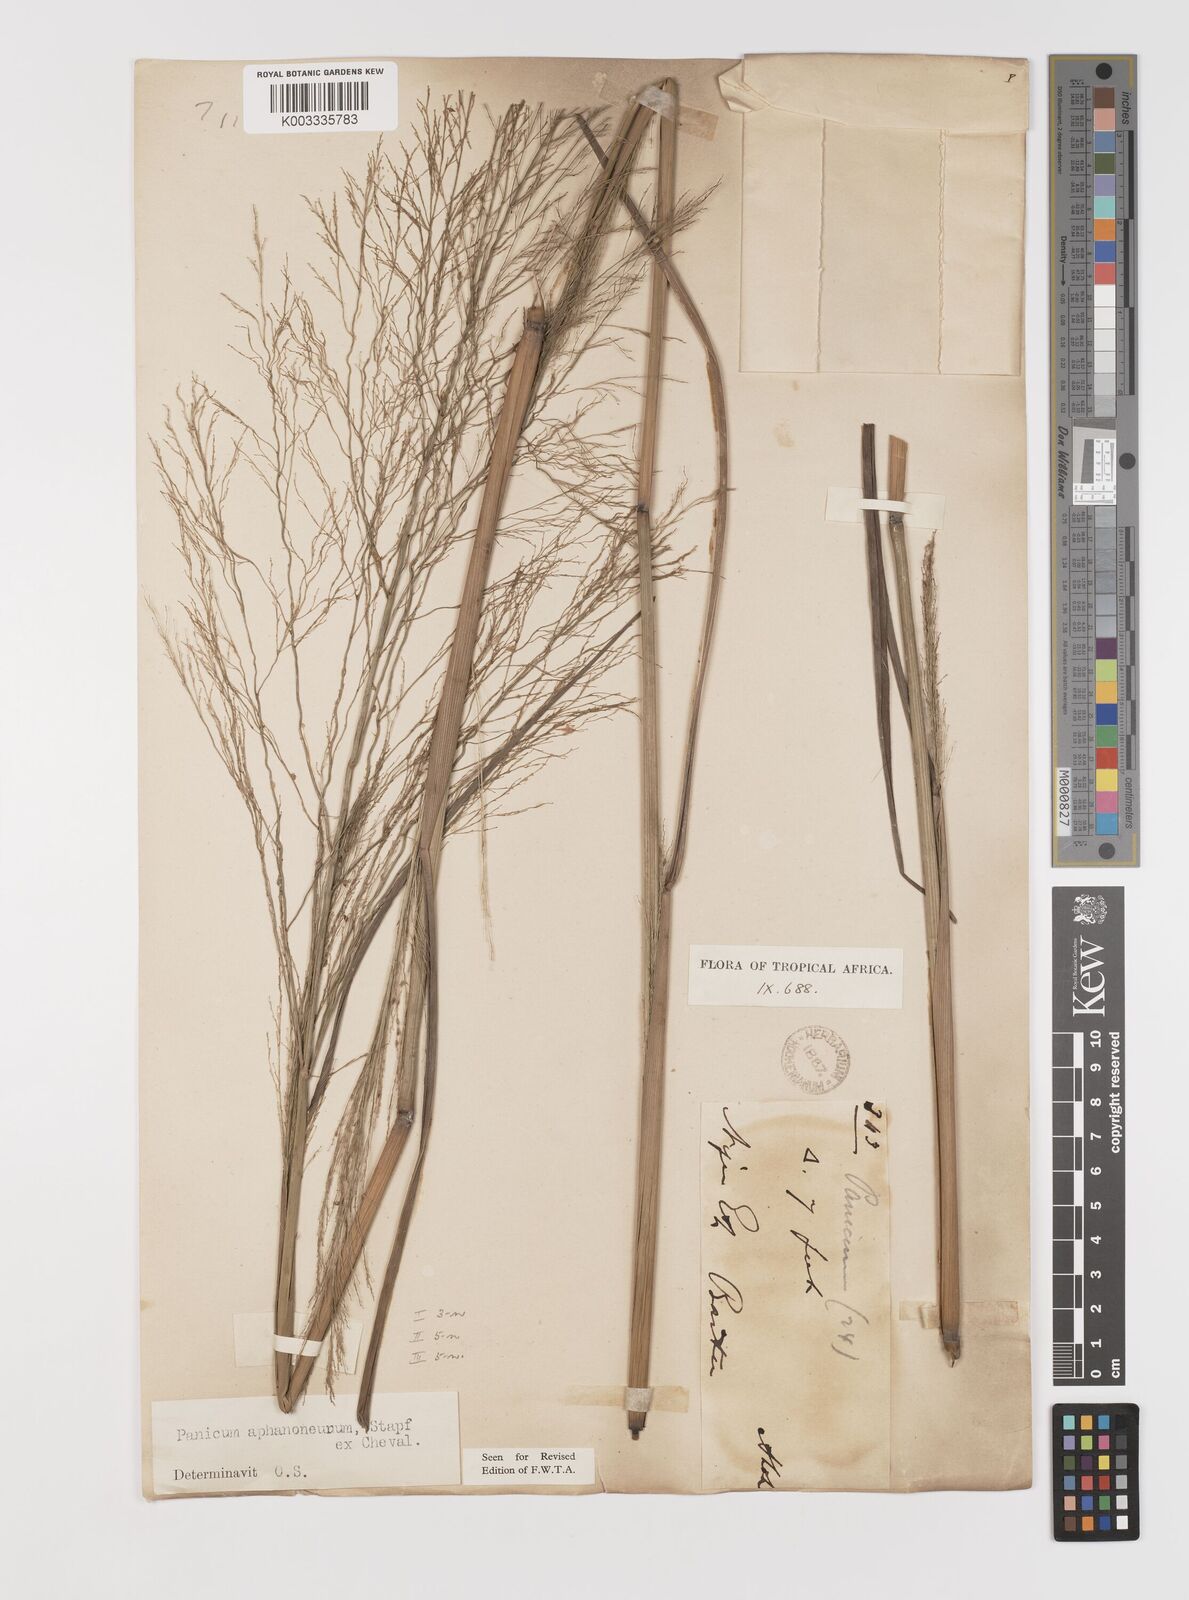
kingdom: Plantae
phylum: Tracheophyta
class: Liliopsida
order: Poales
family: Poaceae
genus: Panicum
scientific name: Panicum fluviicola
